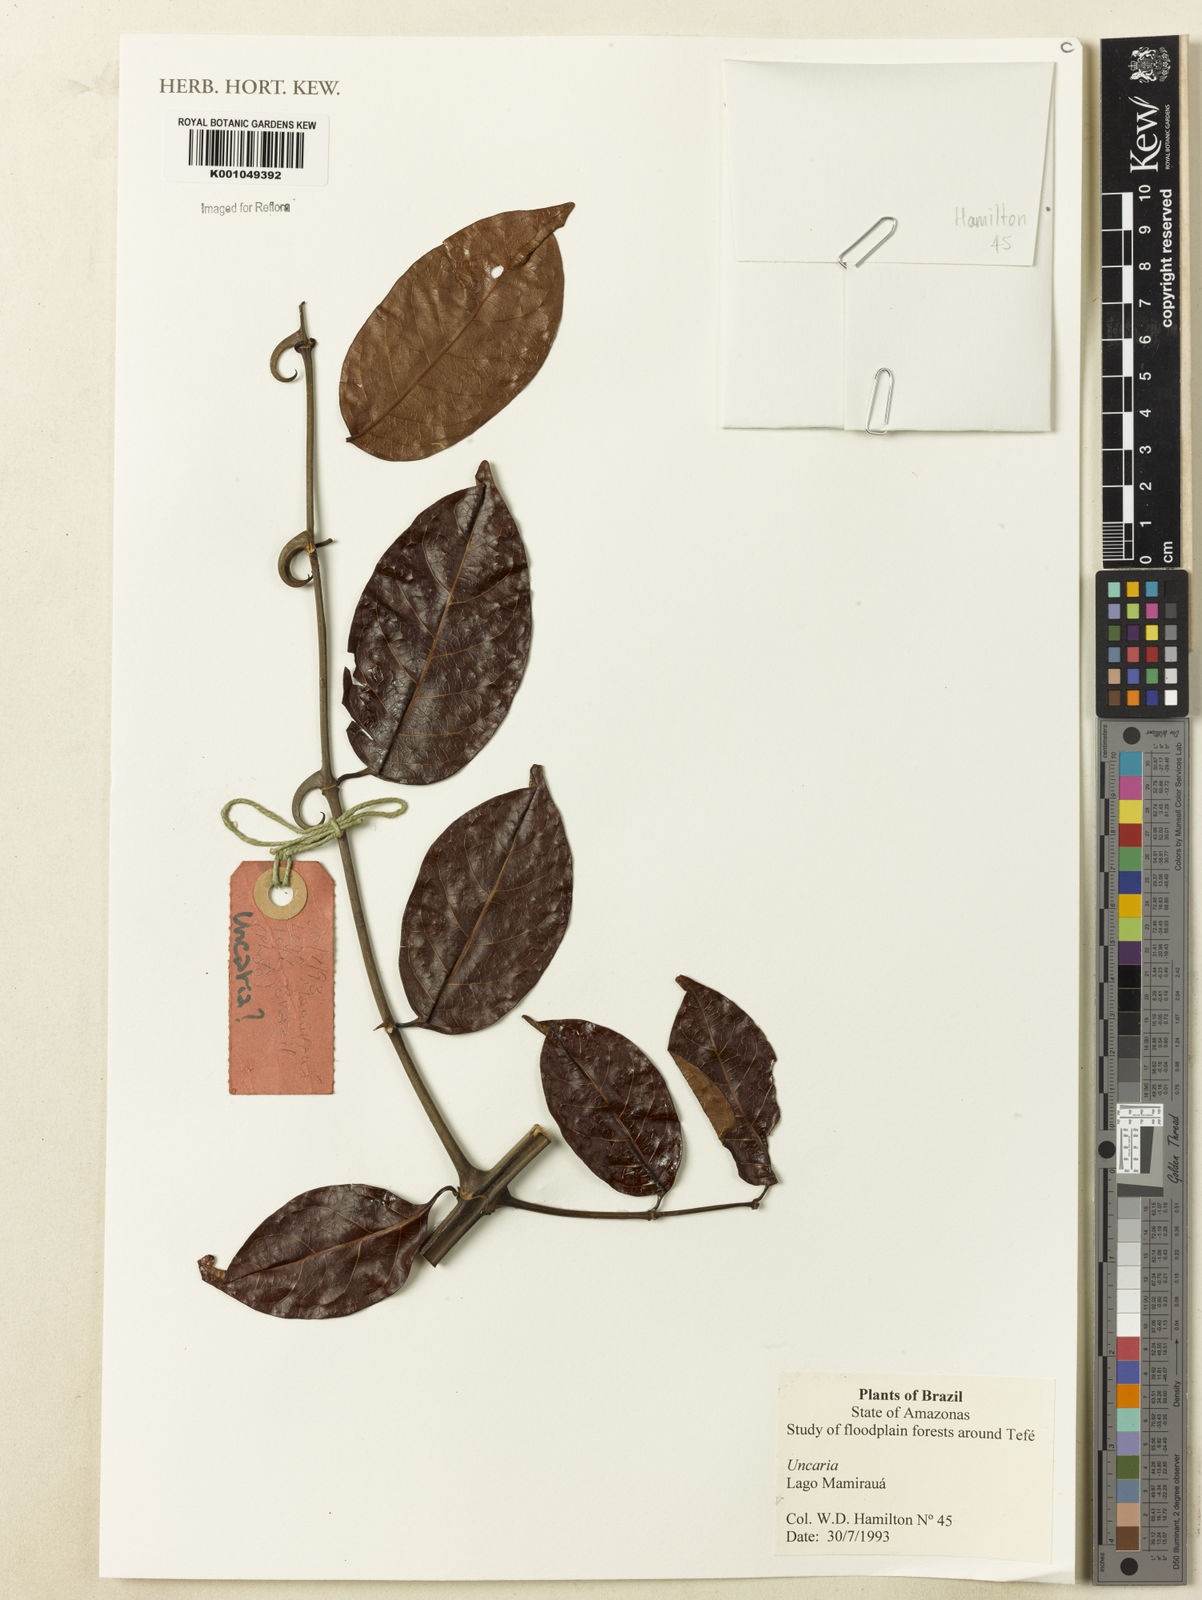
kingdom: Plantae
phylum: Tracheophyta
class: Magnoliopsida
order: Gentianales
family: Rubiaceae
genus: Uncaria
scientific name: Uncaria
